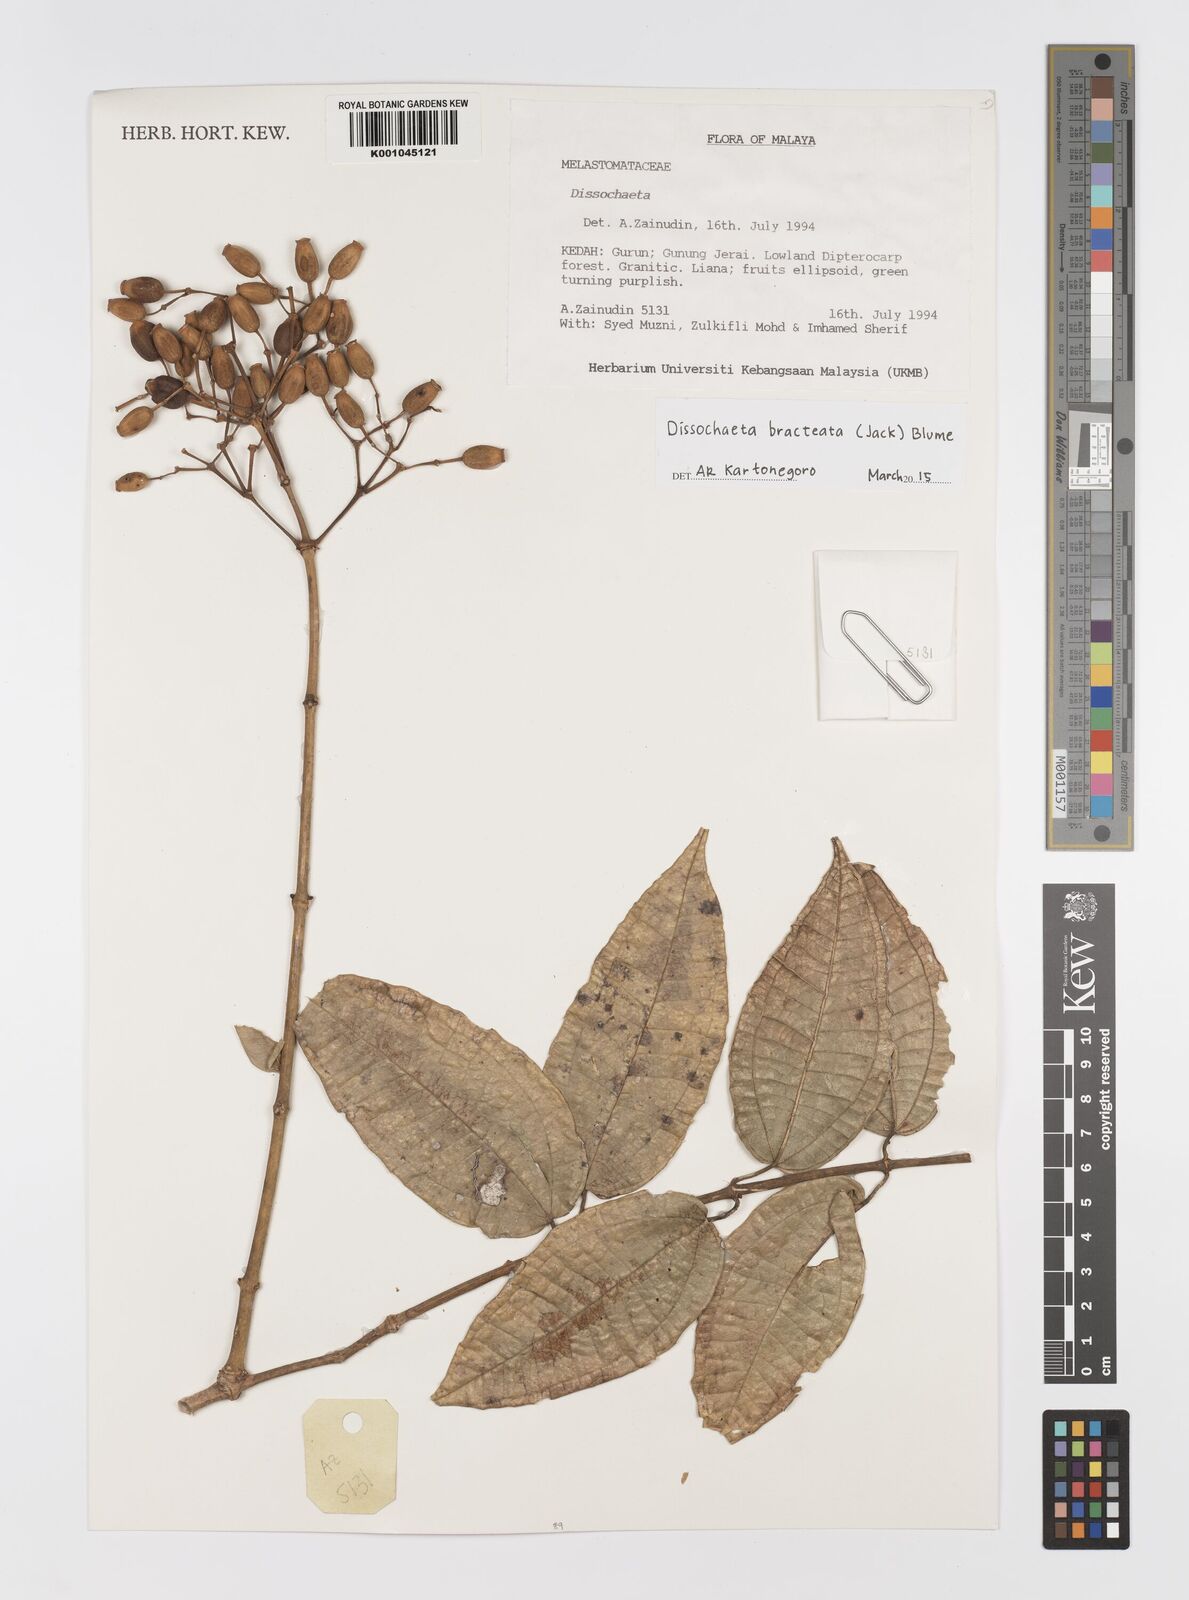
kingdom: Plantae
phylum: Tracheophyta
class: Magnoliopsida
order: Myrtales
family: Melastomataceae
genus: Dissochaeta
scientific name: Dissochaeta bracteata
